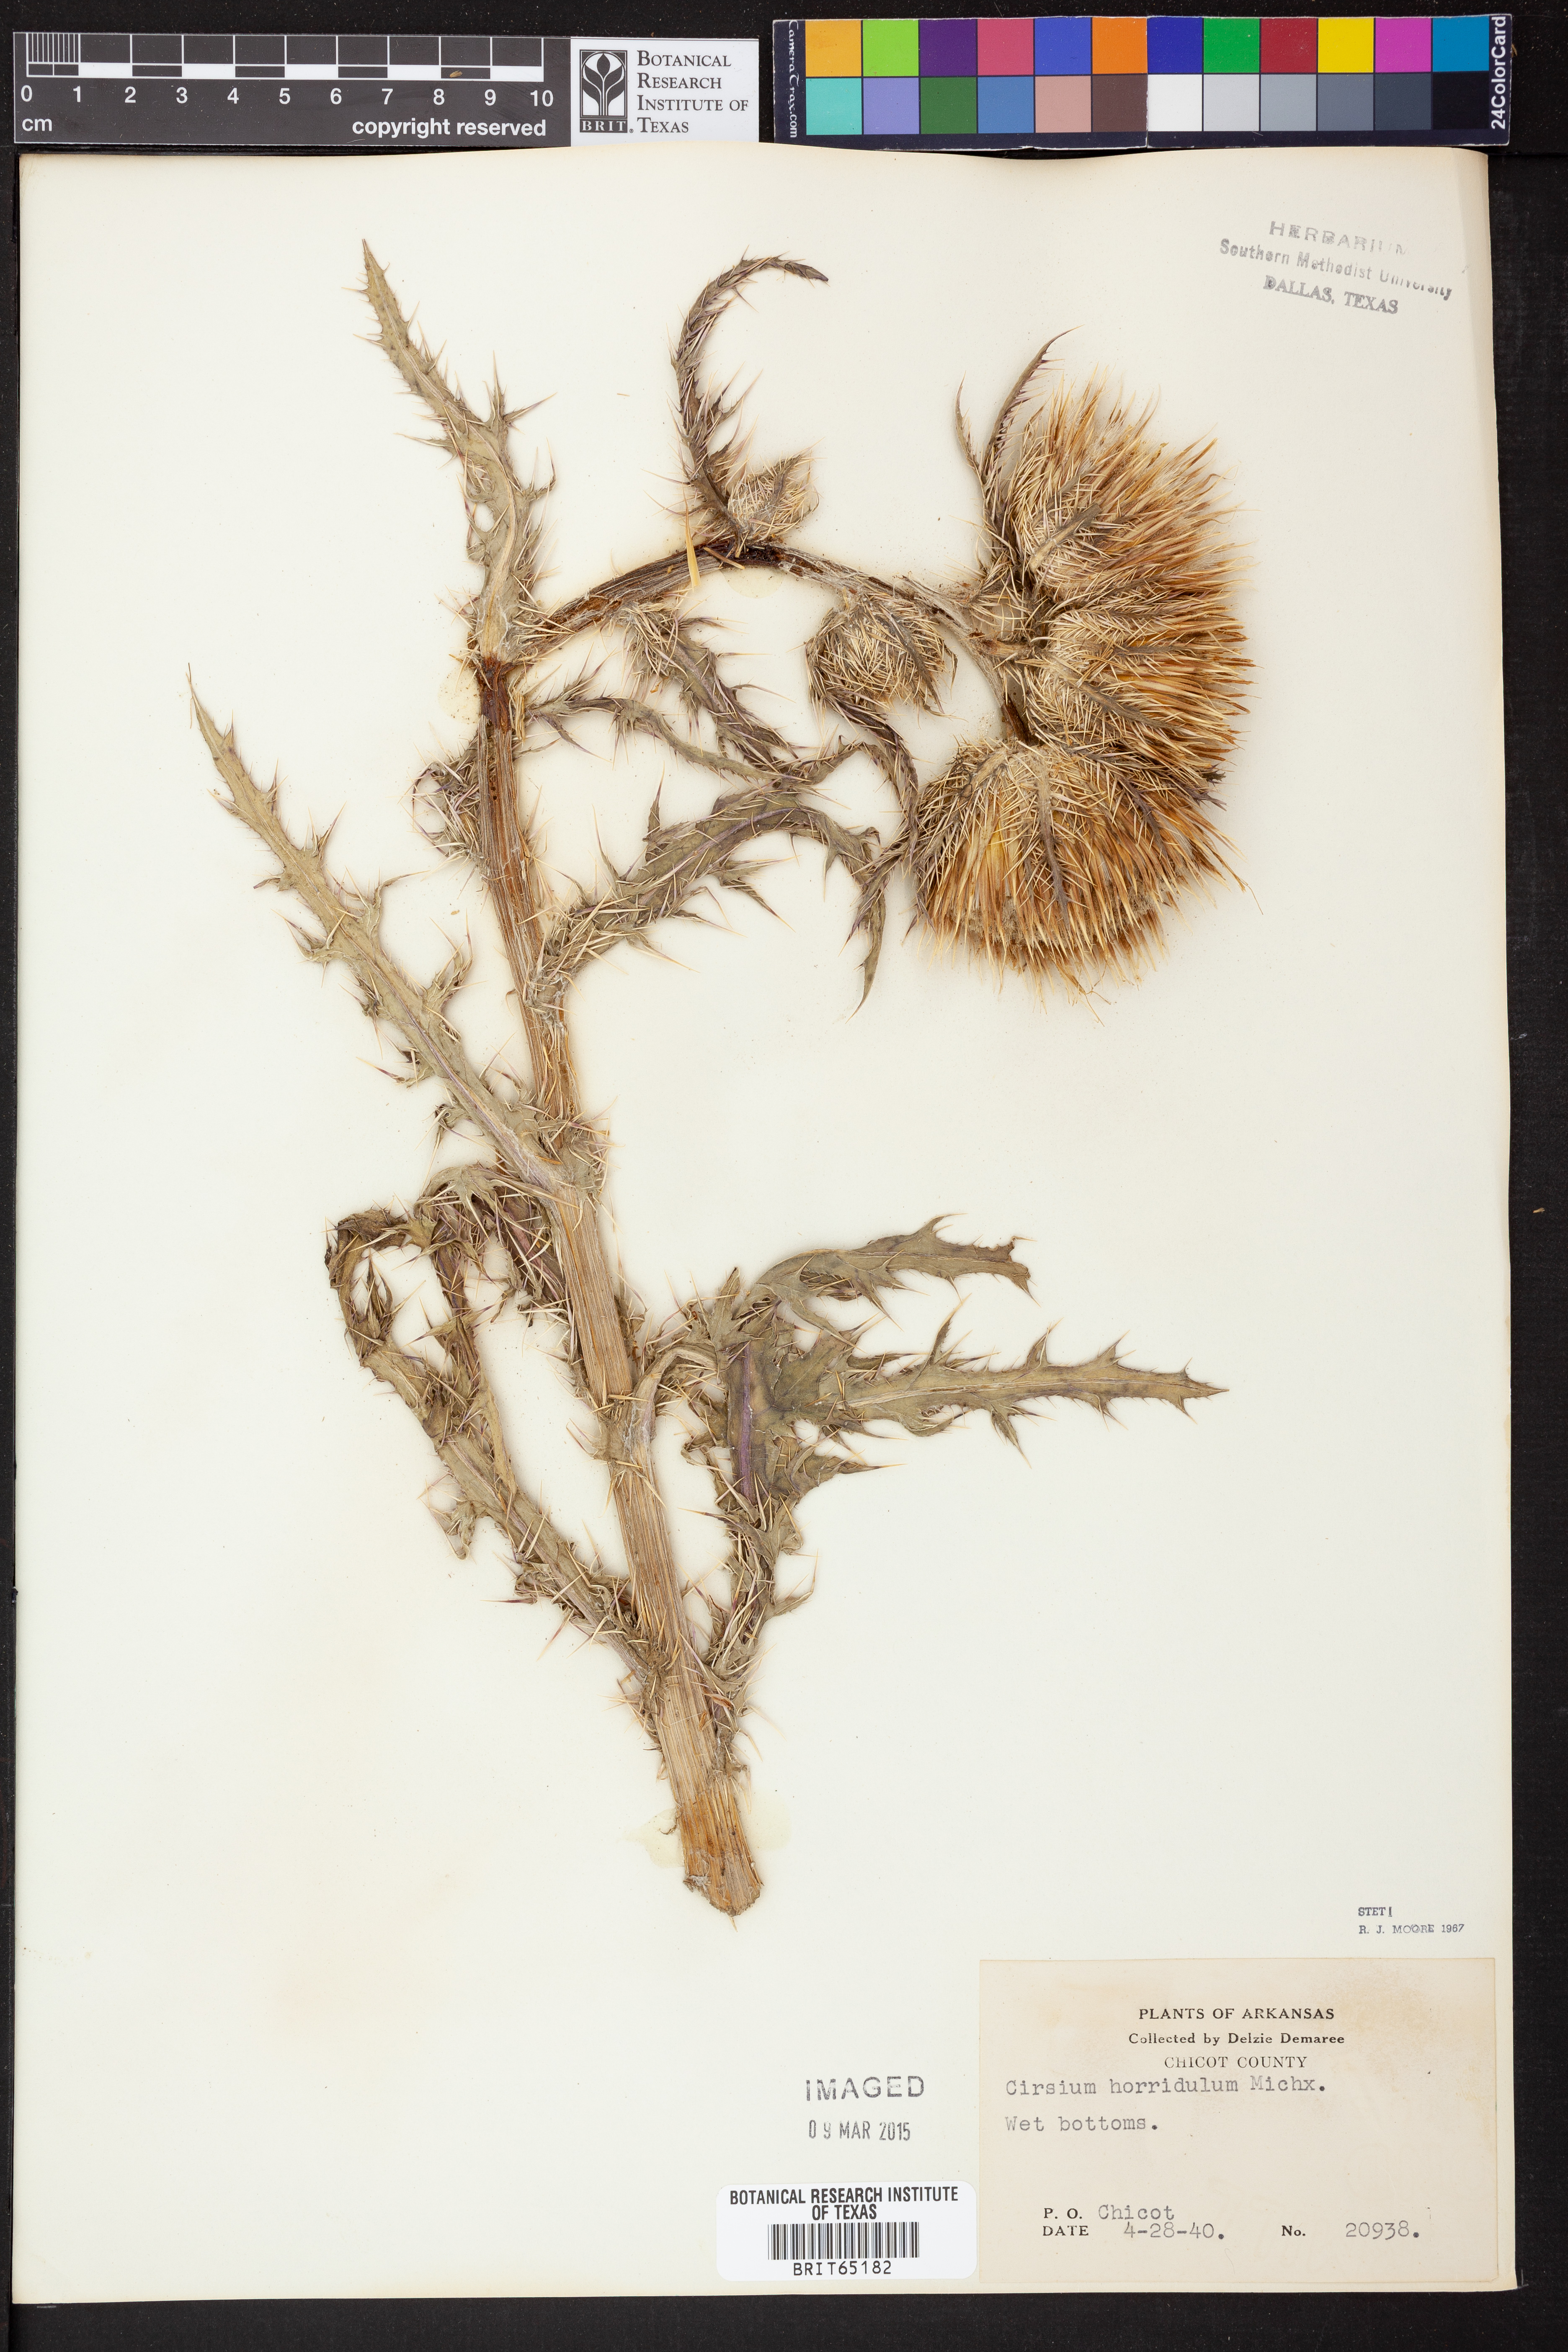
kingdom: Plantae
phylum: Tracheophyta
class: Magnoliopsida
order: Asterales
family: Asteraceae
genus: Cirsium
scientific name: Cirsium horridulum
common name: Bristly thistle
